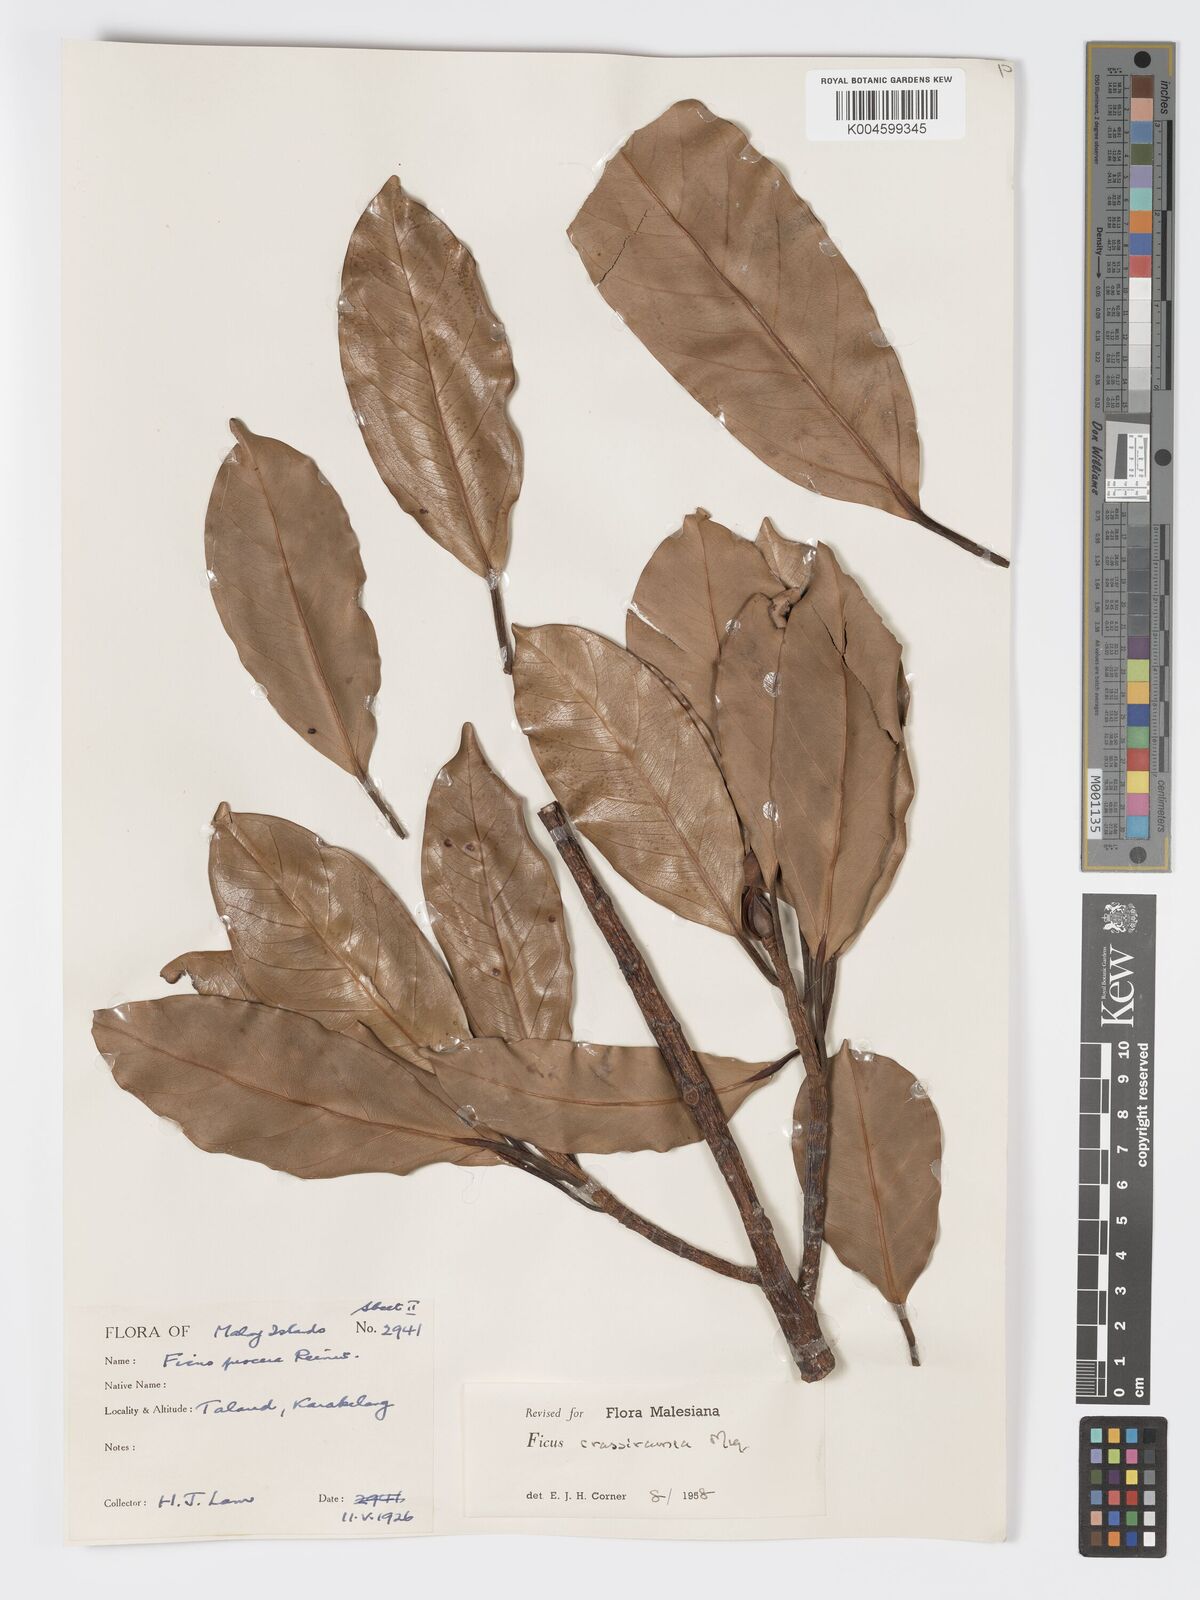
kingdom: Plantae
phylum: Tracheophyta
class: Magnoliopsida
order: Rosales
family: Moraceae
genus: Ficus
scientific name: Ficus crassiramea
